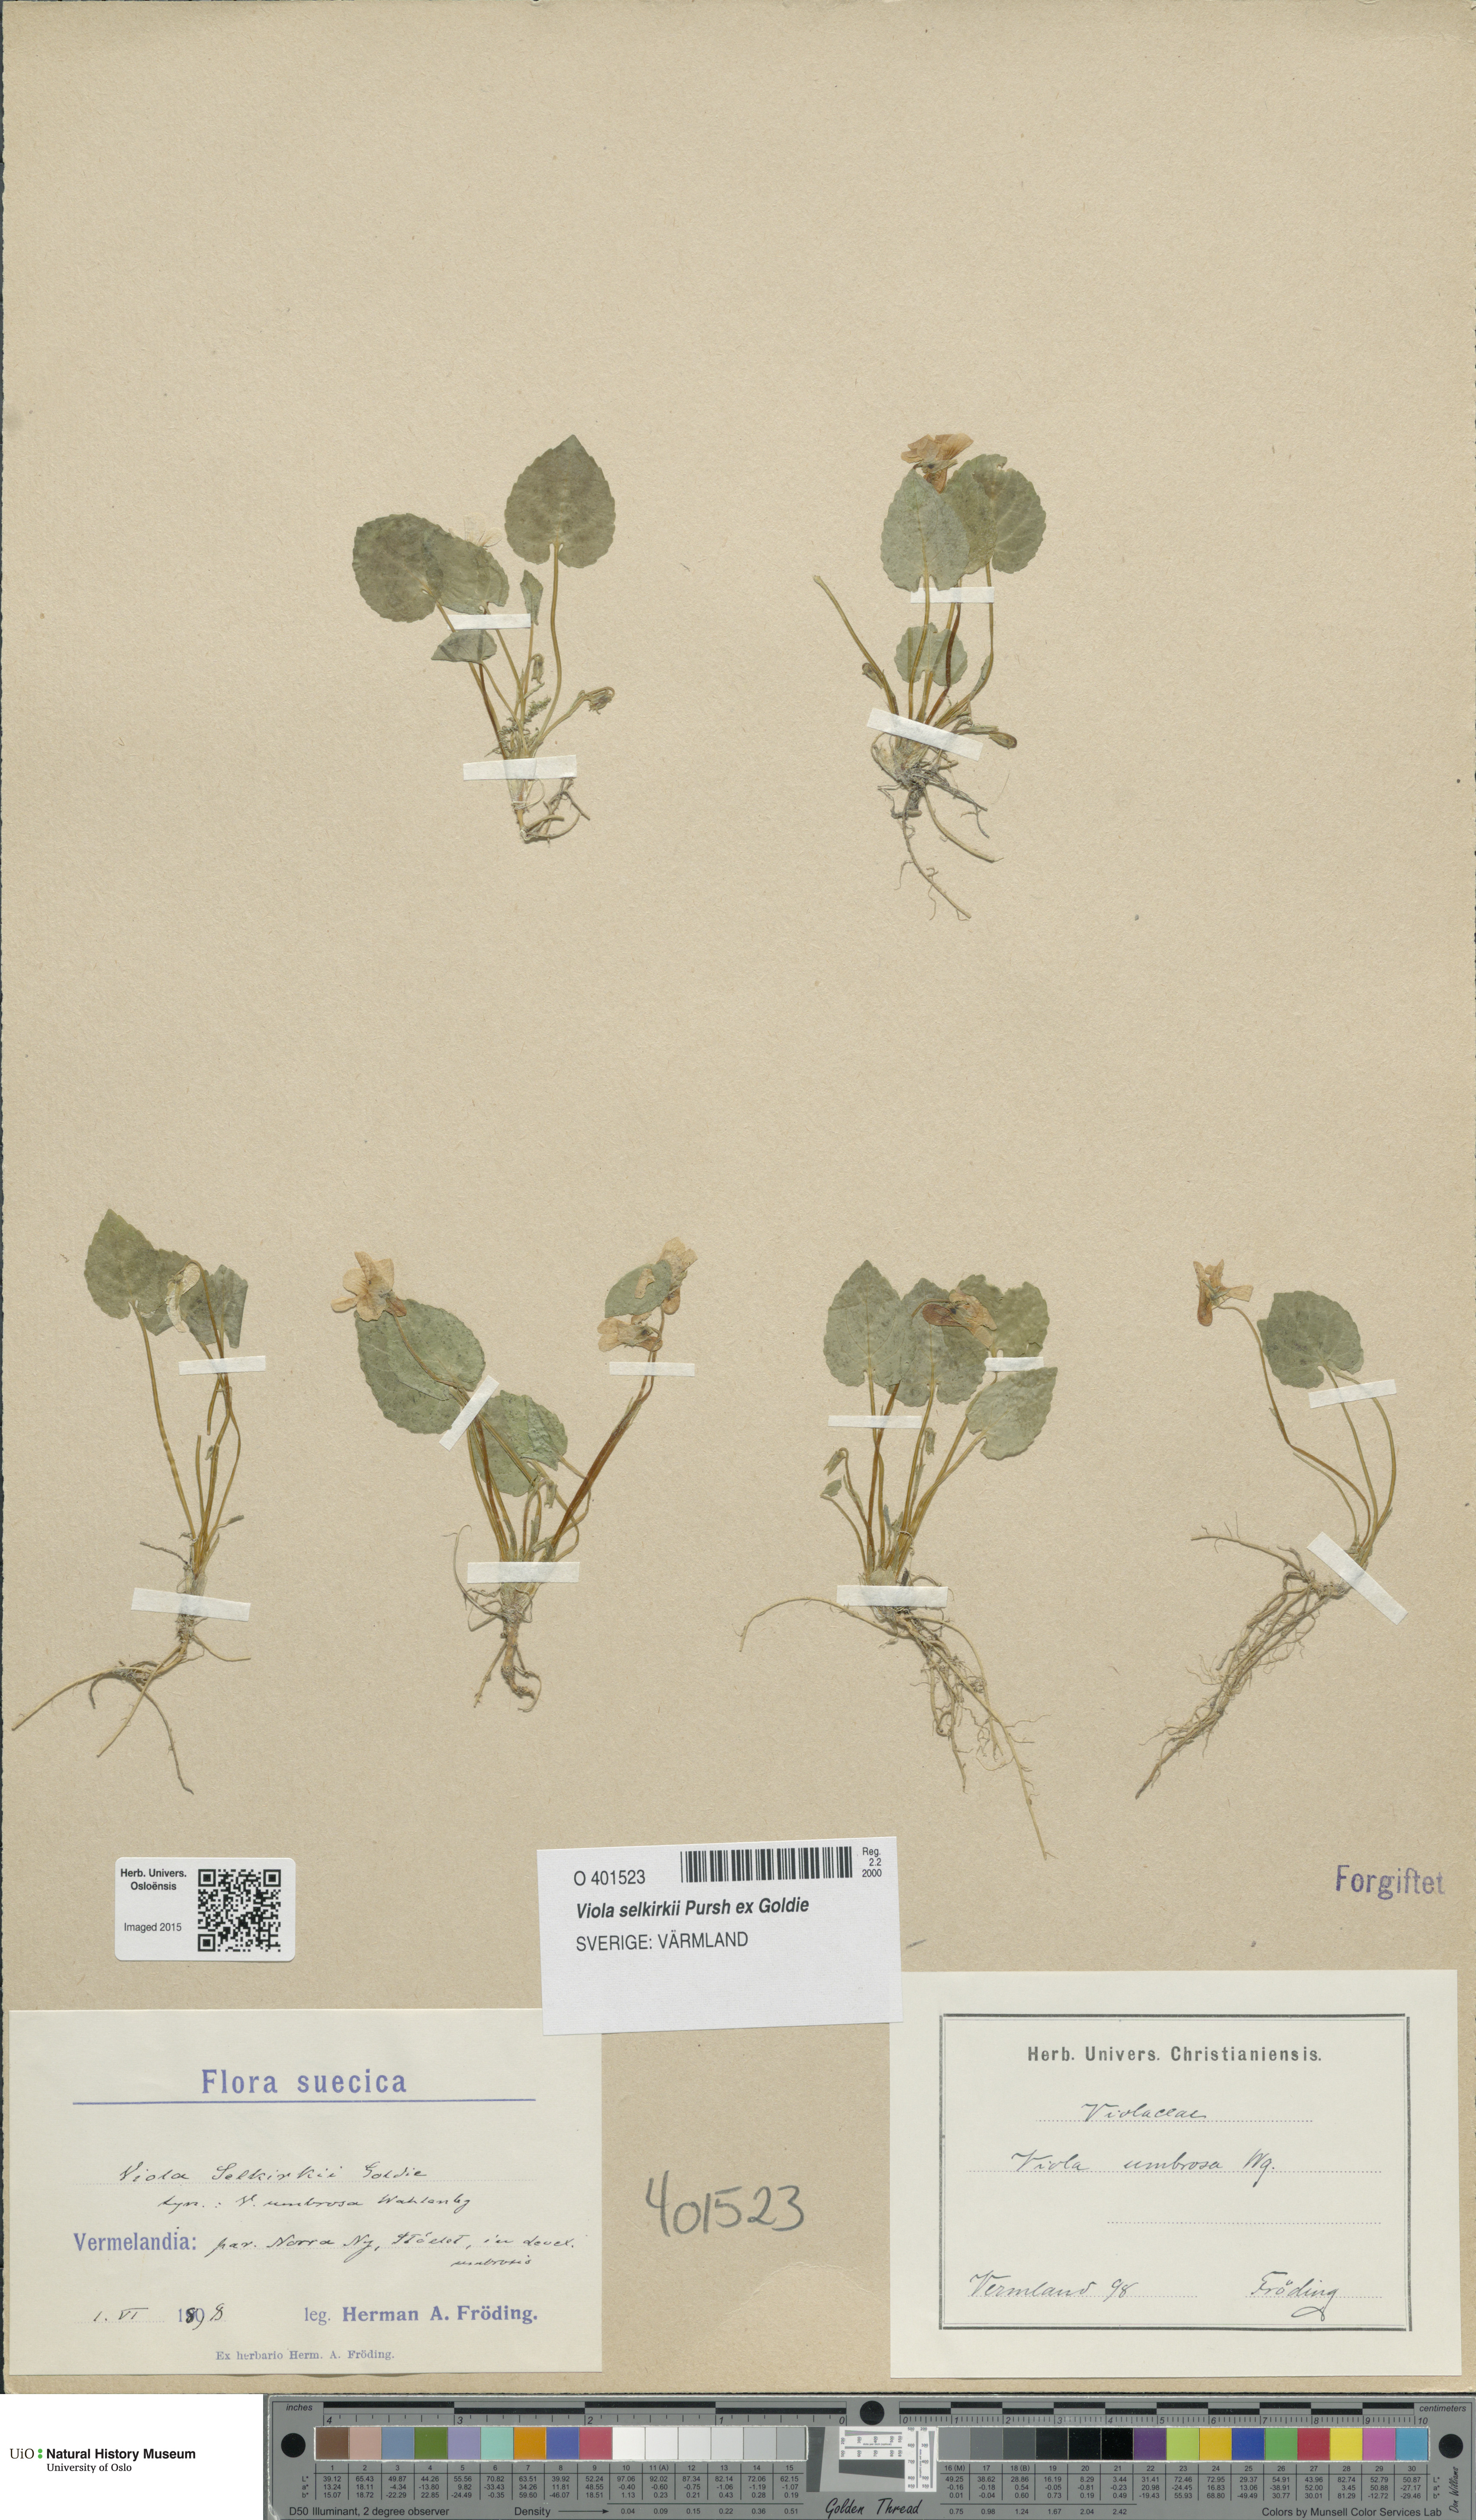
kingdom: Plantae
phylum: Tracheophyta
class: Magnoliopsida
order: Malpighiales
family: Violaceae
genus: Viola
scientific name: Viola selkirkii
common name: Selkirk's violet
